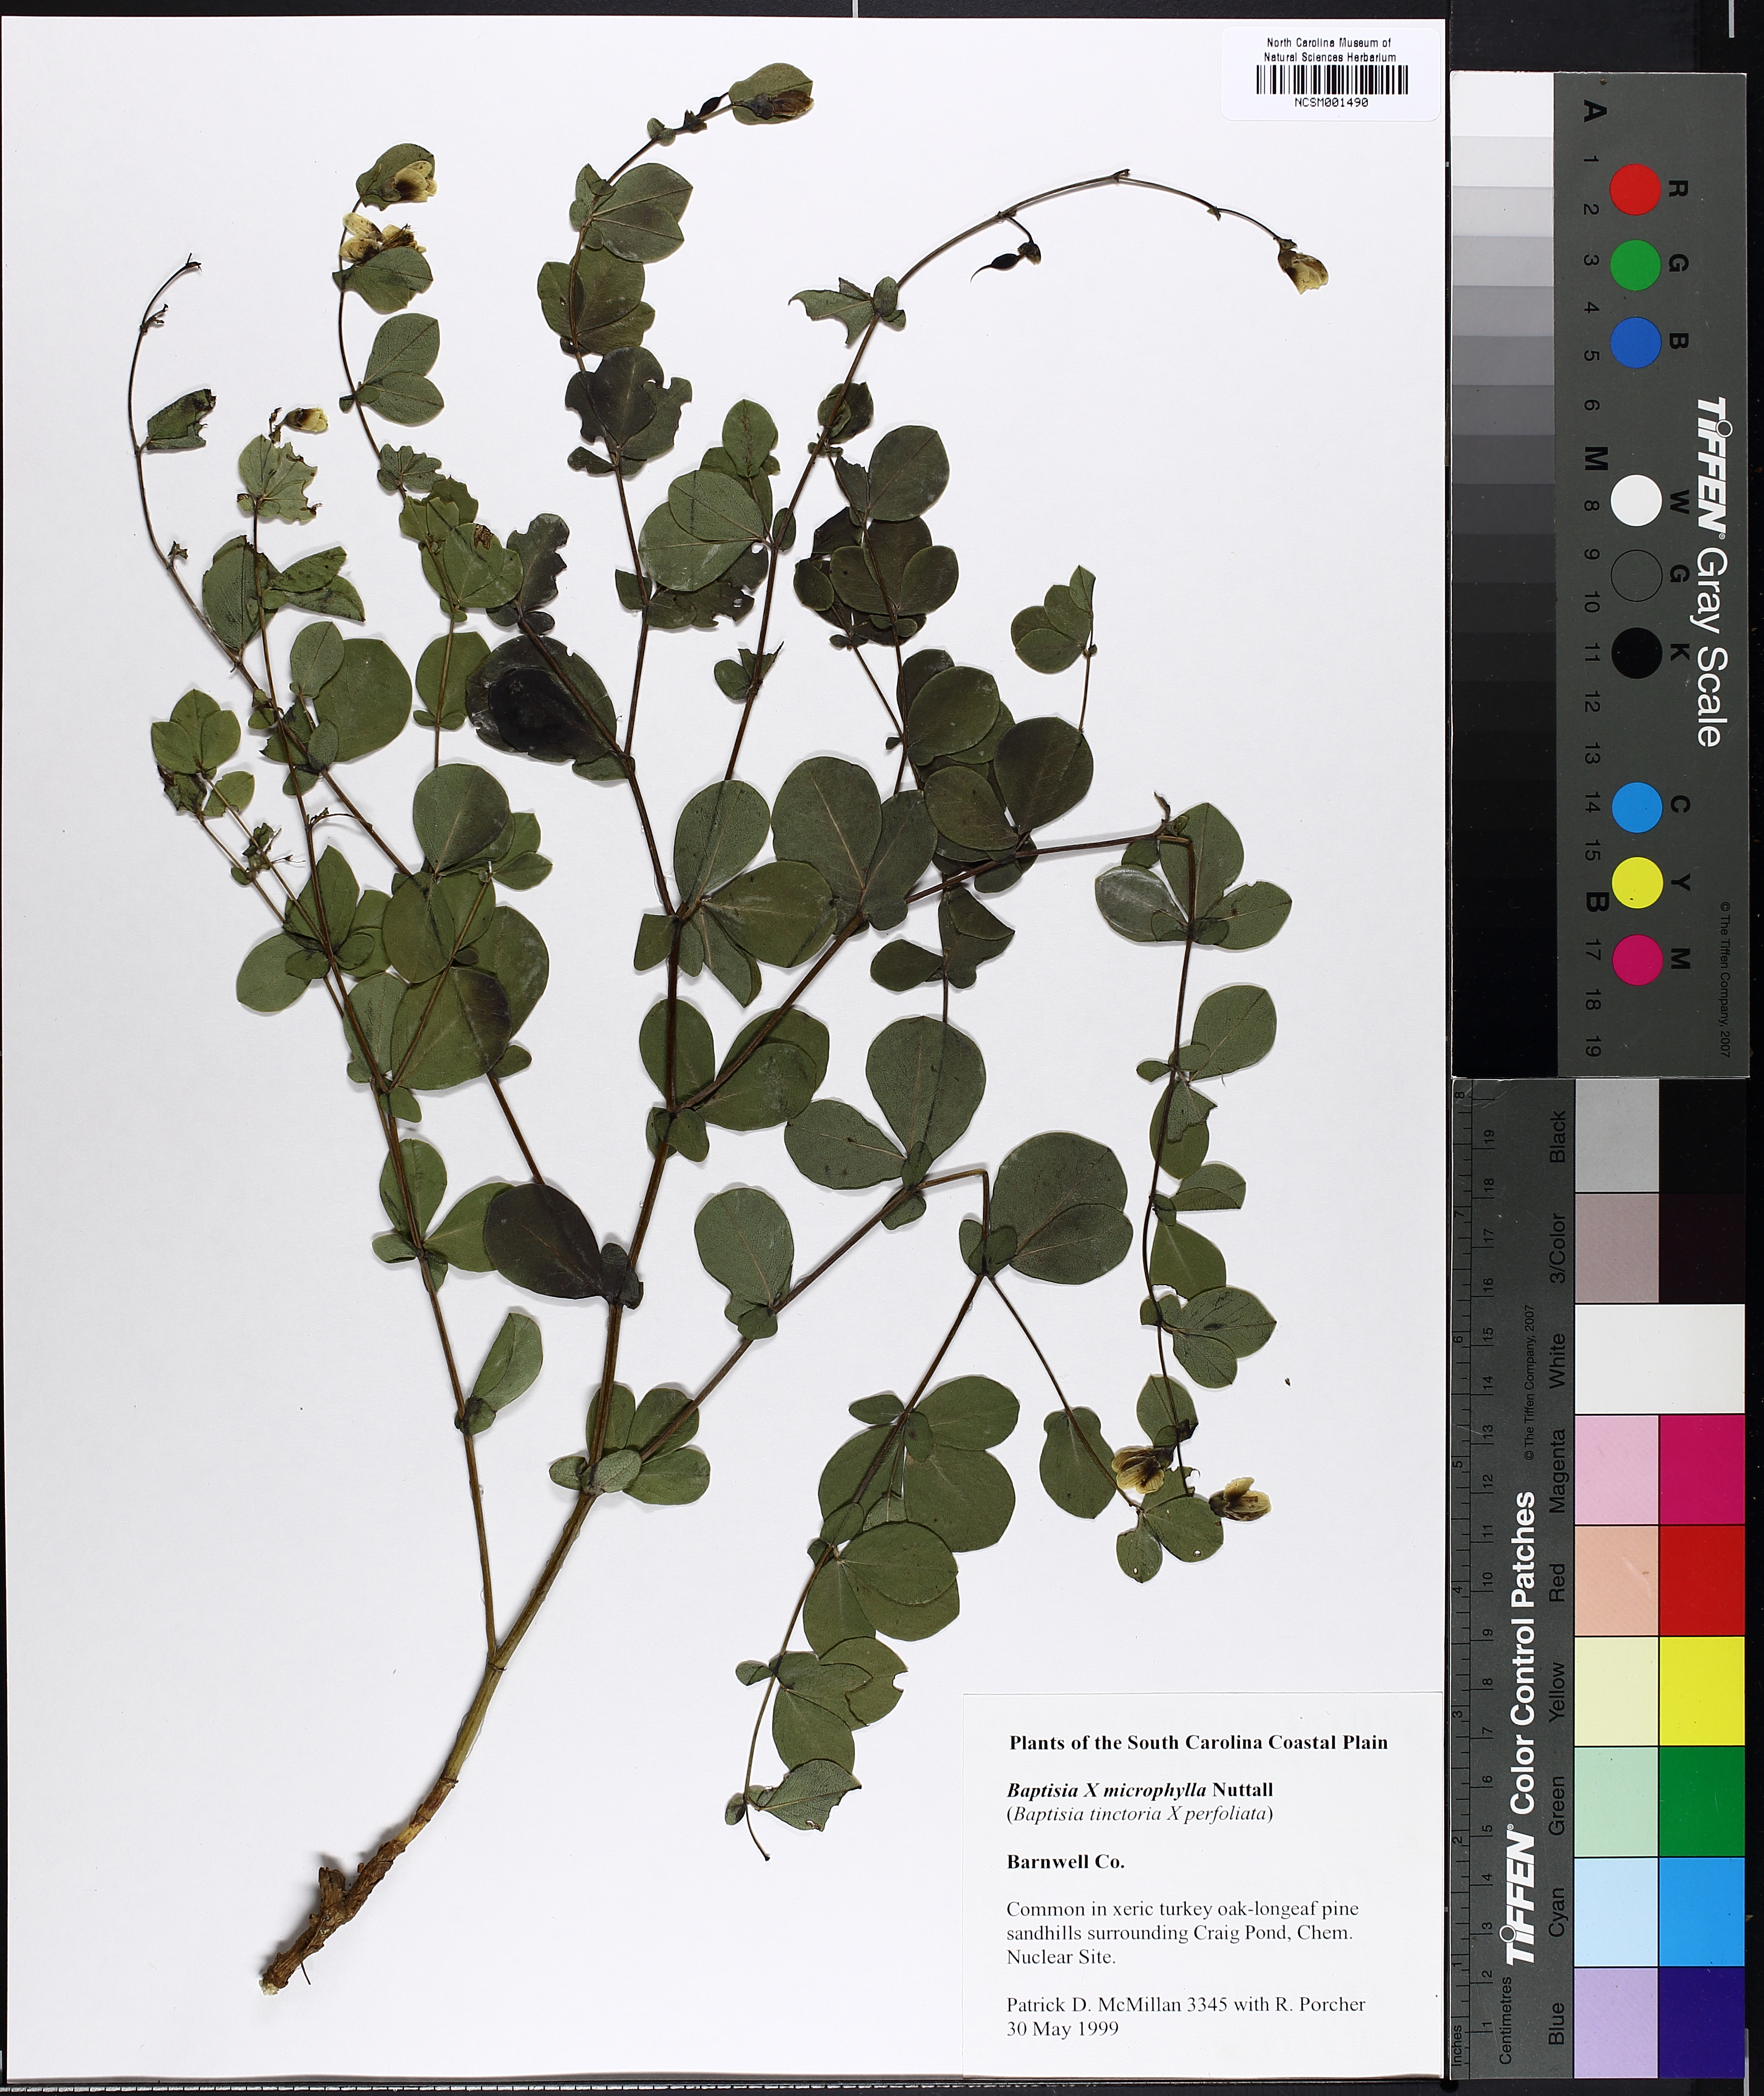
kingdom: Plantae
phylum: Tracheophyta
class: Magnoliopsida
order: Fabales
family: Fabaceae
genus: Baptisia
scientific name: Baptisia microphylla
